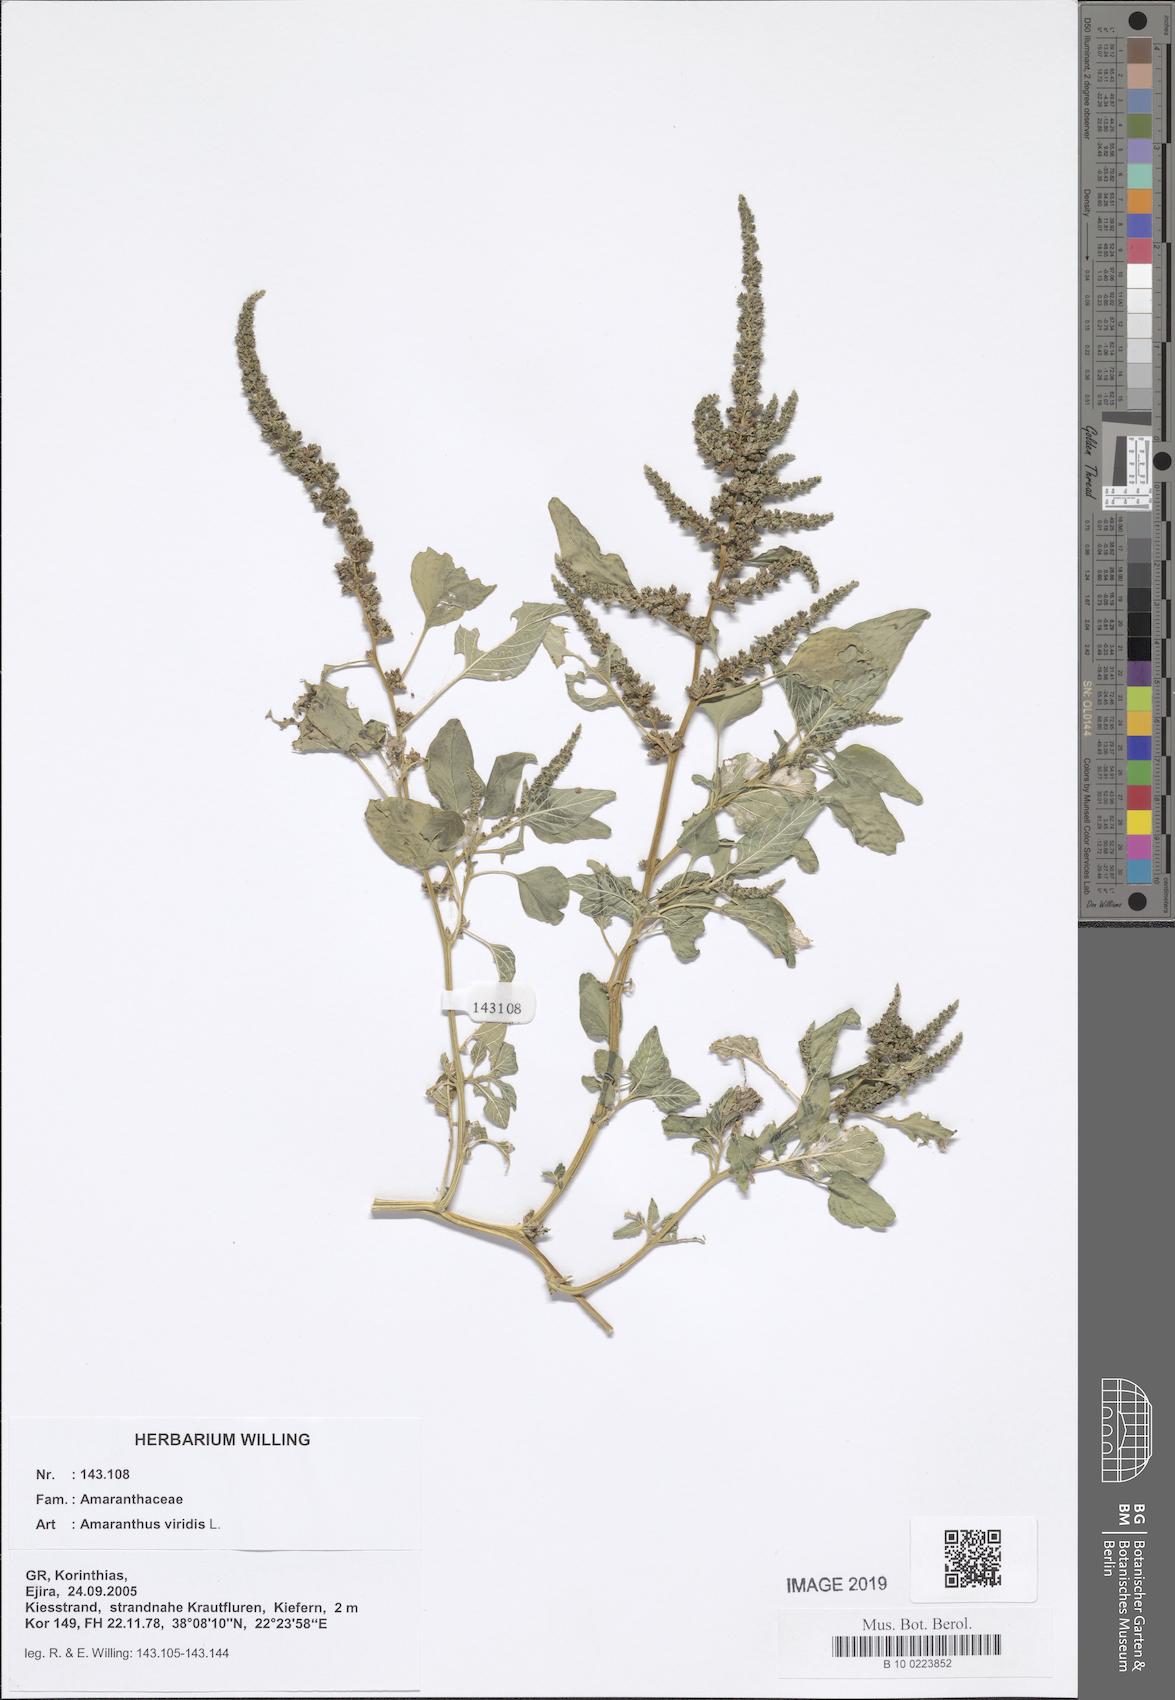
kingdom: Plantae
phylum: Tracheophyta
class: Magnoliopsida
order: Caryophyllales
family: Amaranthaceae
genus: Amaranthus
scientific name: Amaranthus viridis
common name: Slender amaranth
